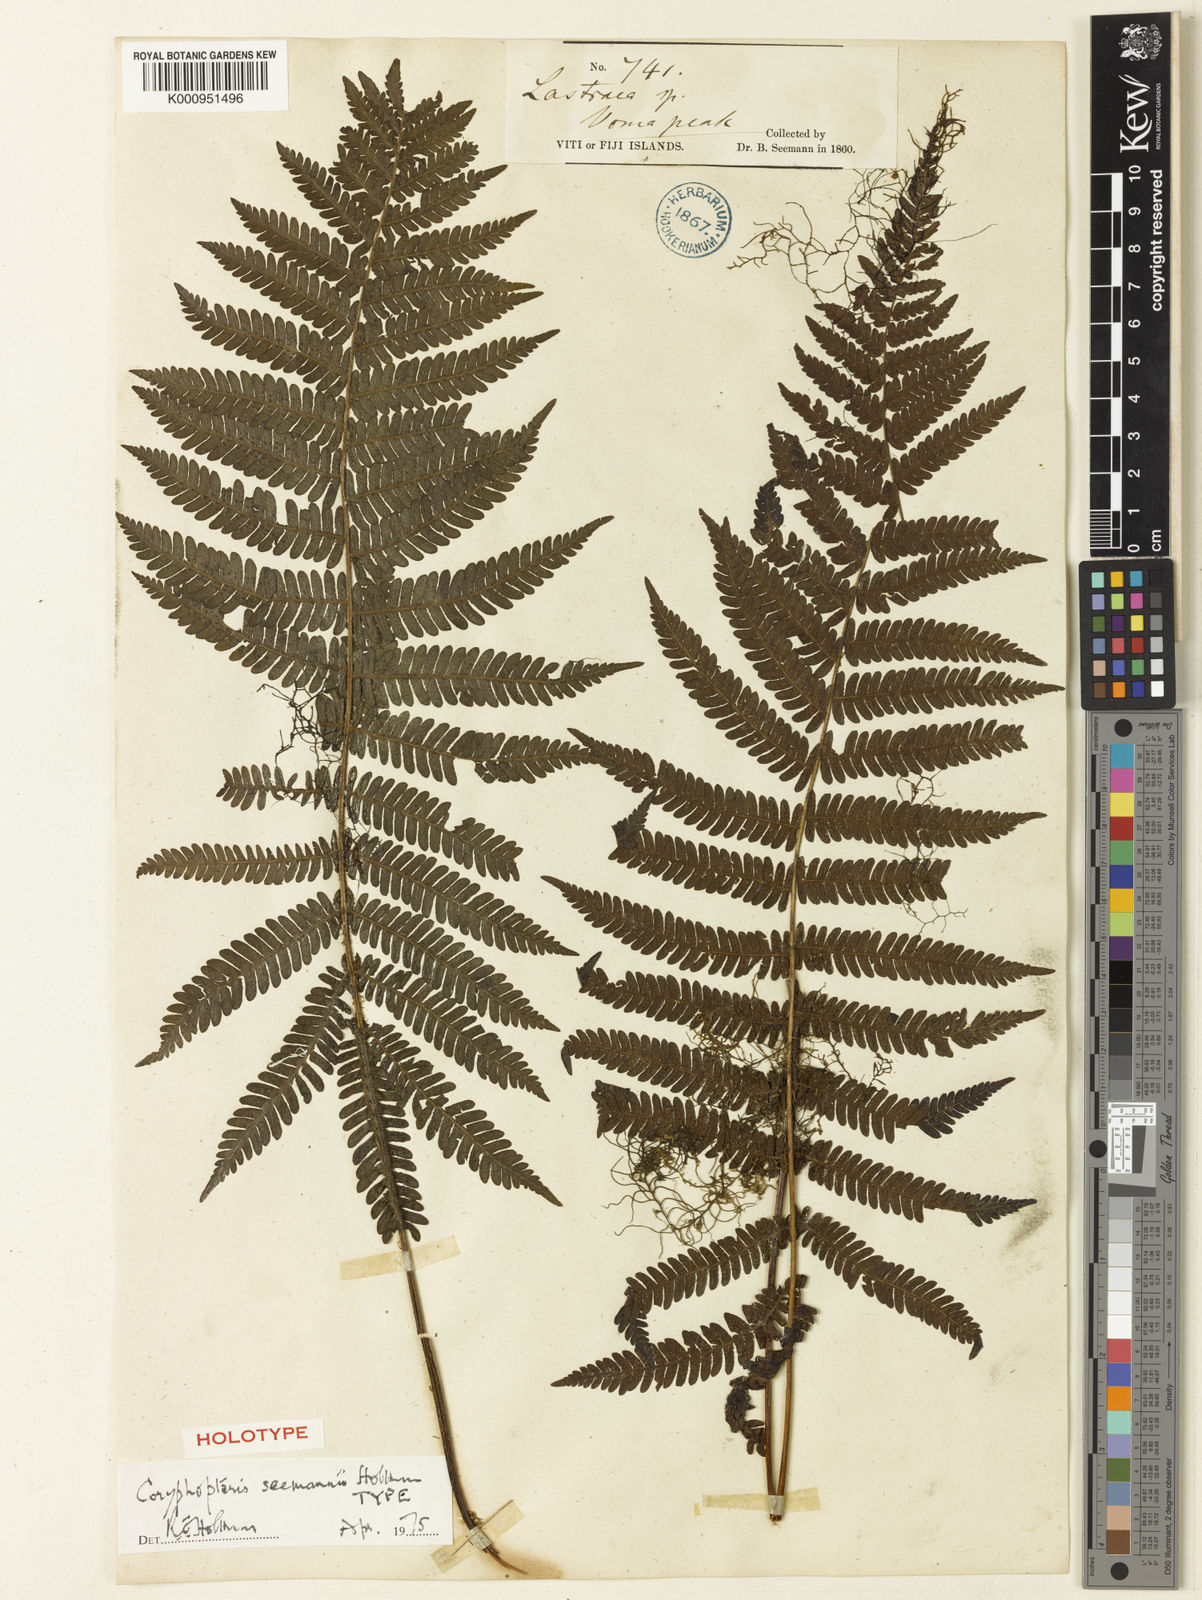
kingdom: Plantae
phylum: Tracheophyta
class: Polypodiopsida
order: Polypodiales
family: Thelypteridaceae
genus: Coryphopteris
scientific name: Coryphopteris seemannii
